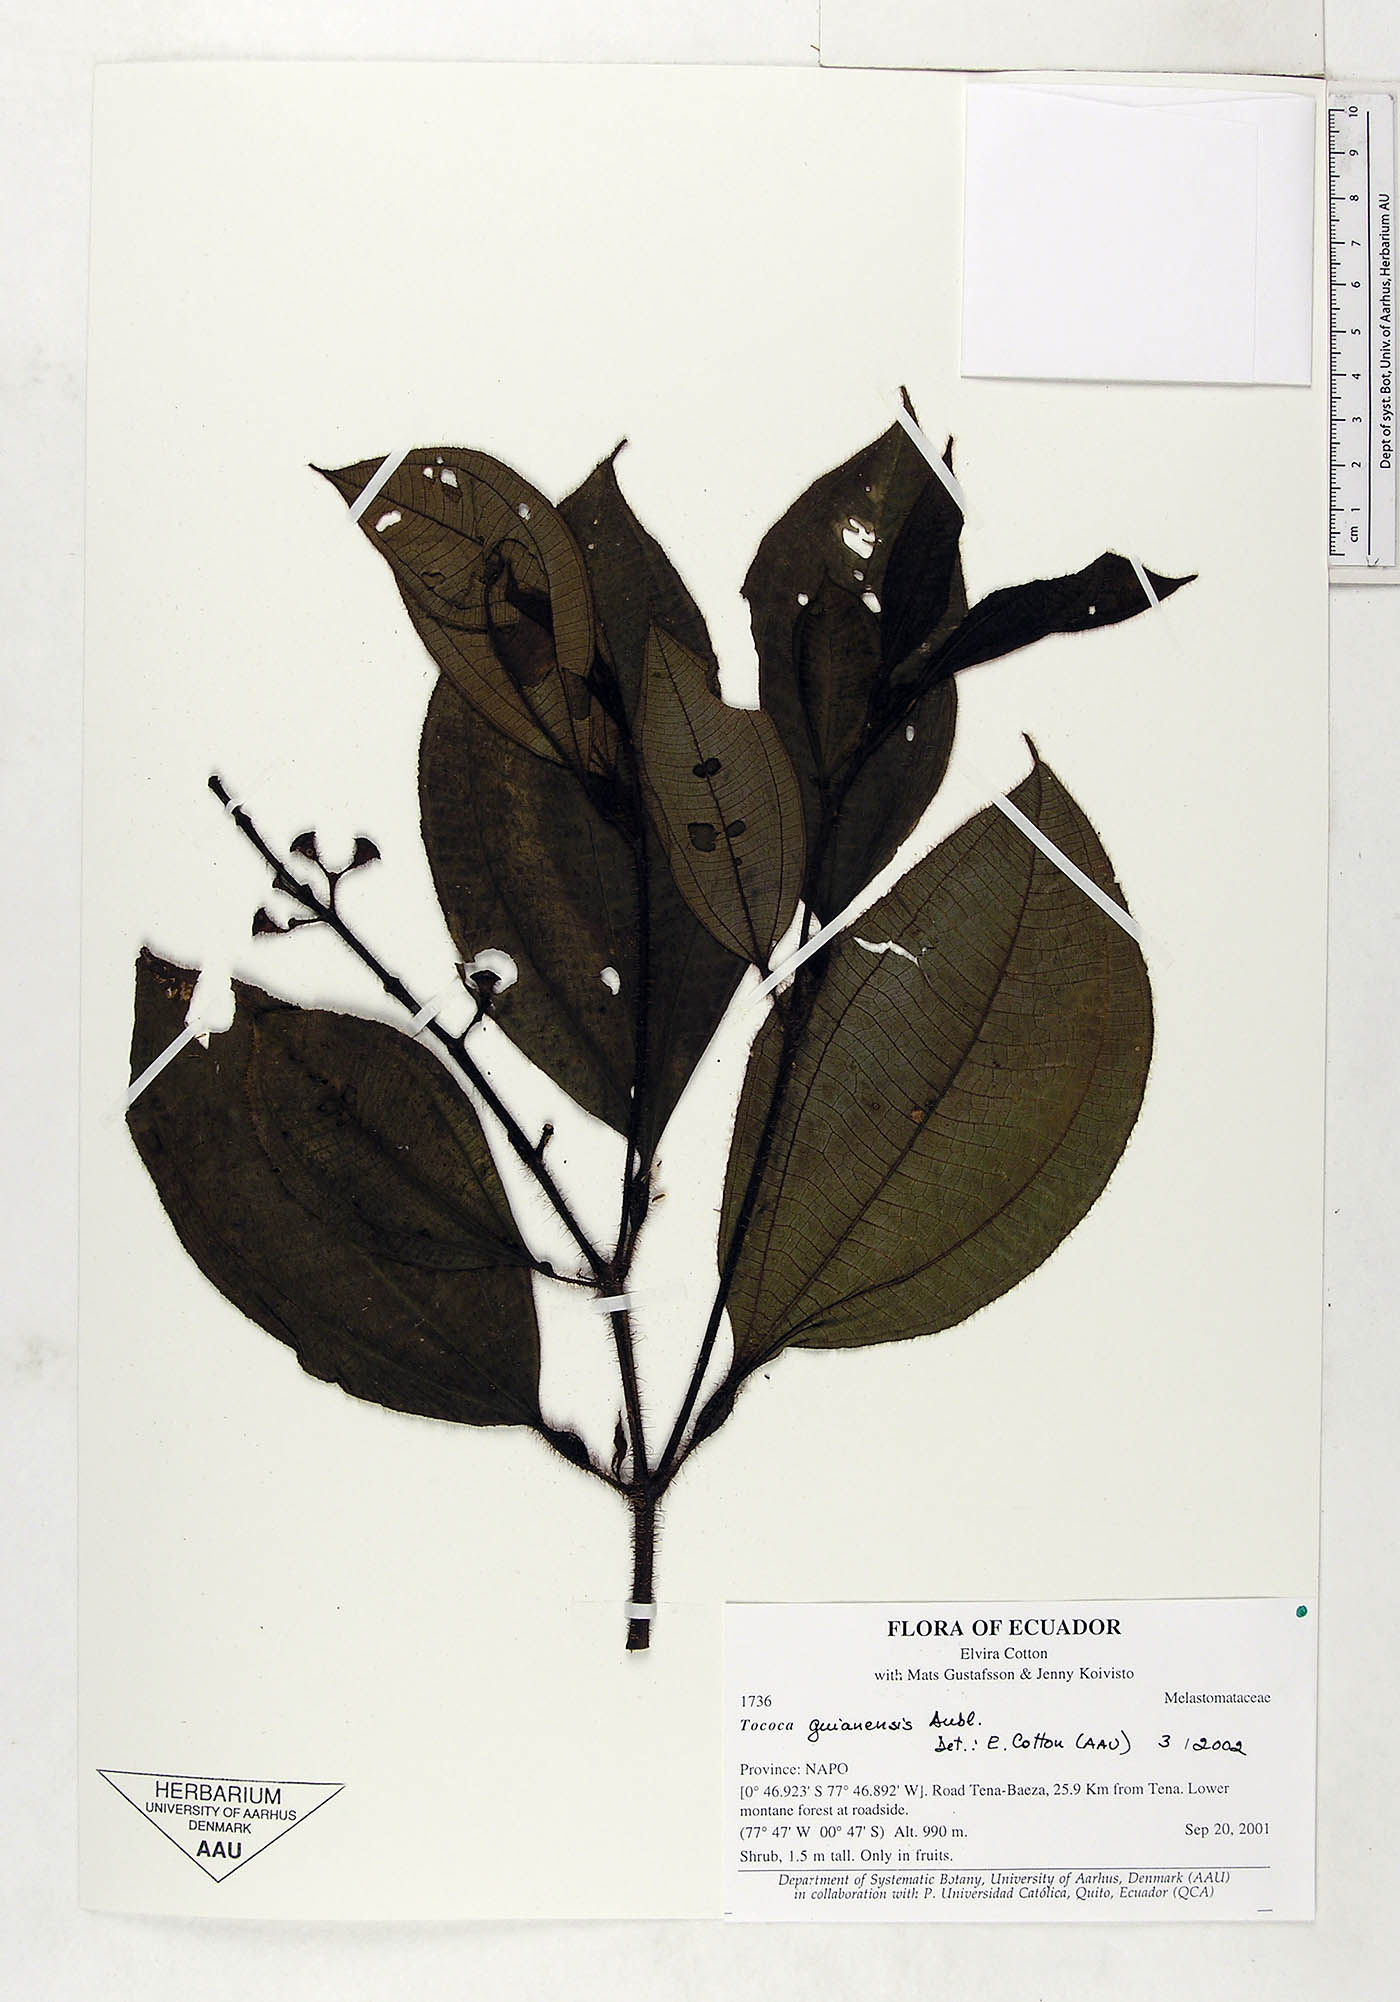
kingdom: Plantae
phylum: Tracheophyta
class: Magnoliopsida
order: Myrtales
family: Melastomataceae
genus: Miconia
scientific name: Miconia tococa
